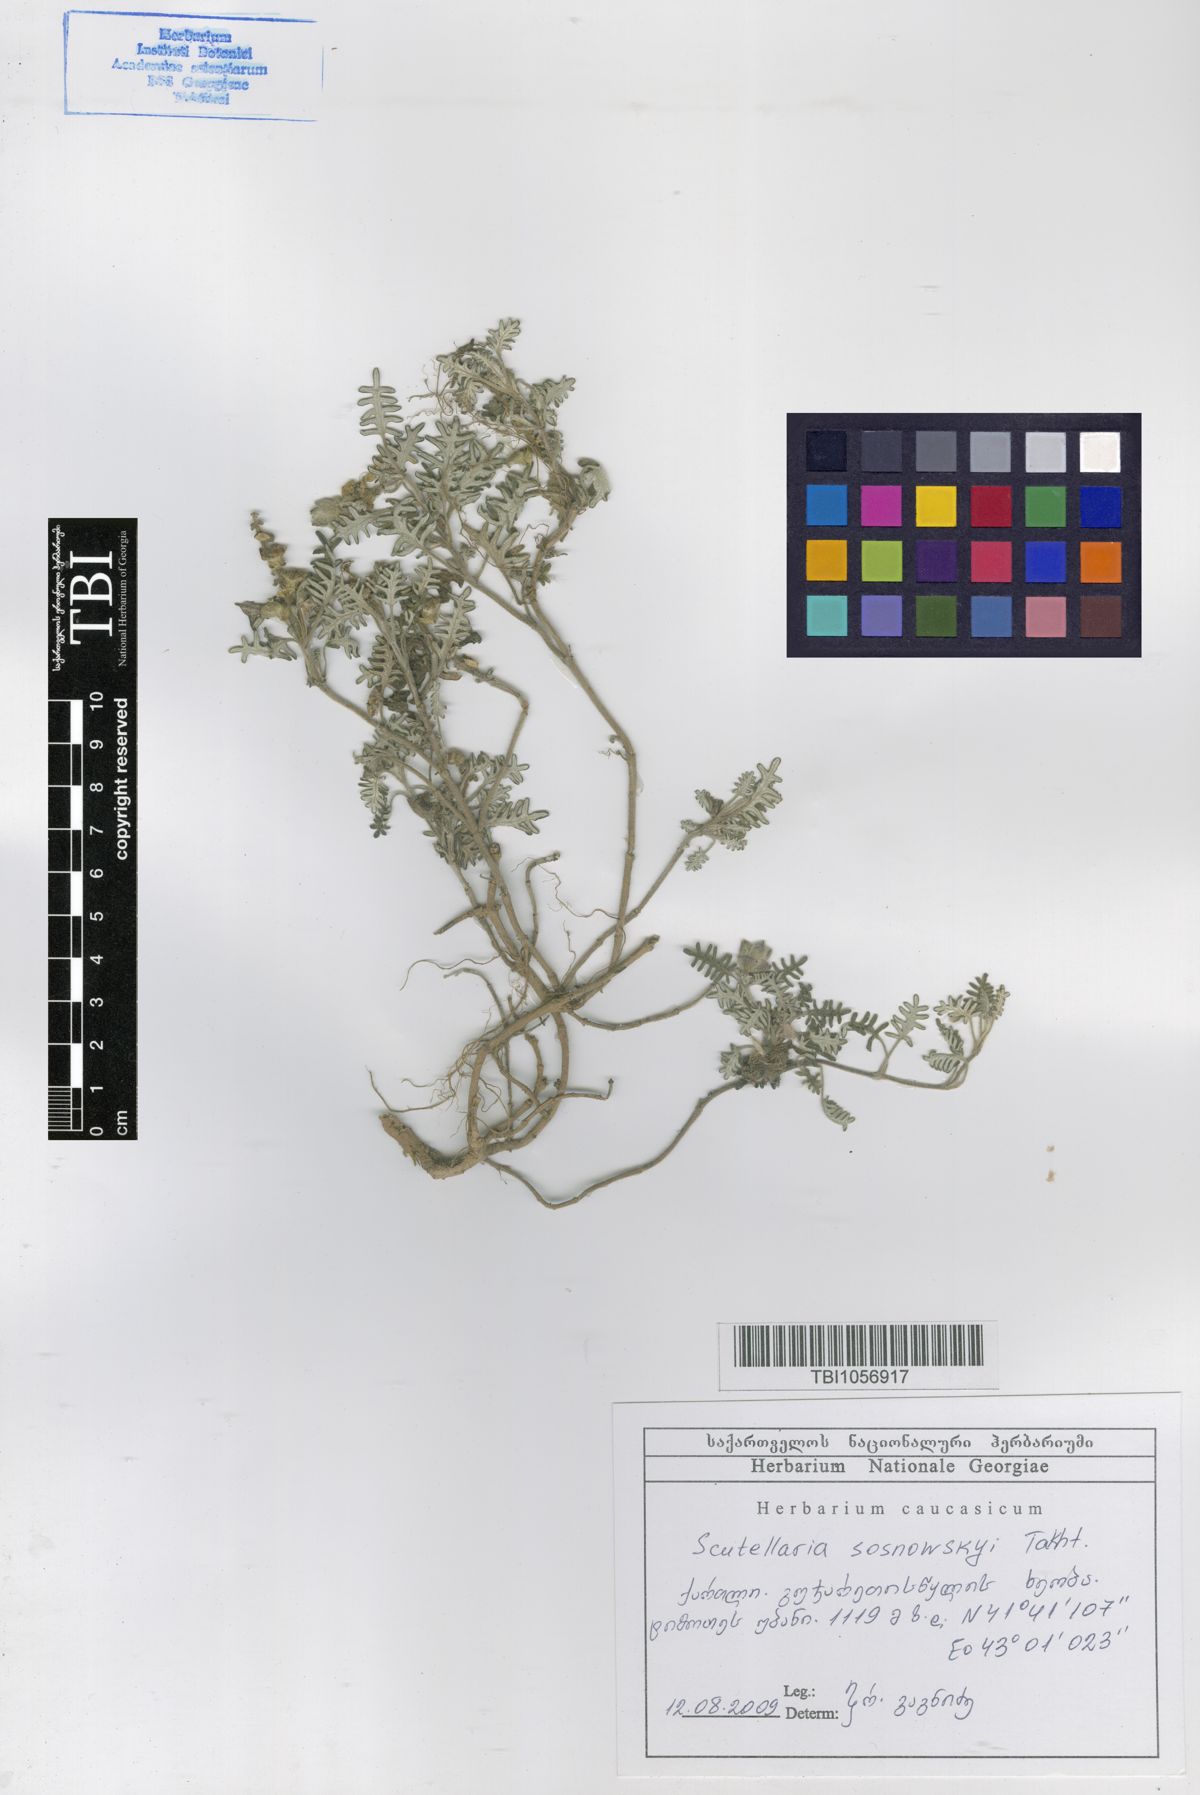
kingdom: Plantae
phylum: Tracheophyta
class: Magnoliopsida
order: Lamiales
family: Lamiaceae
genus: Scutellaria
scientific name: Scutellaria sosnowskyi
